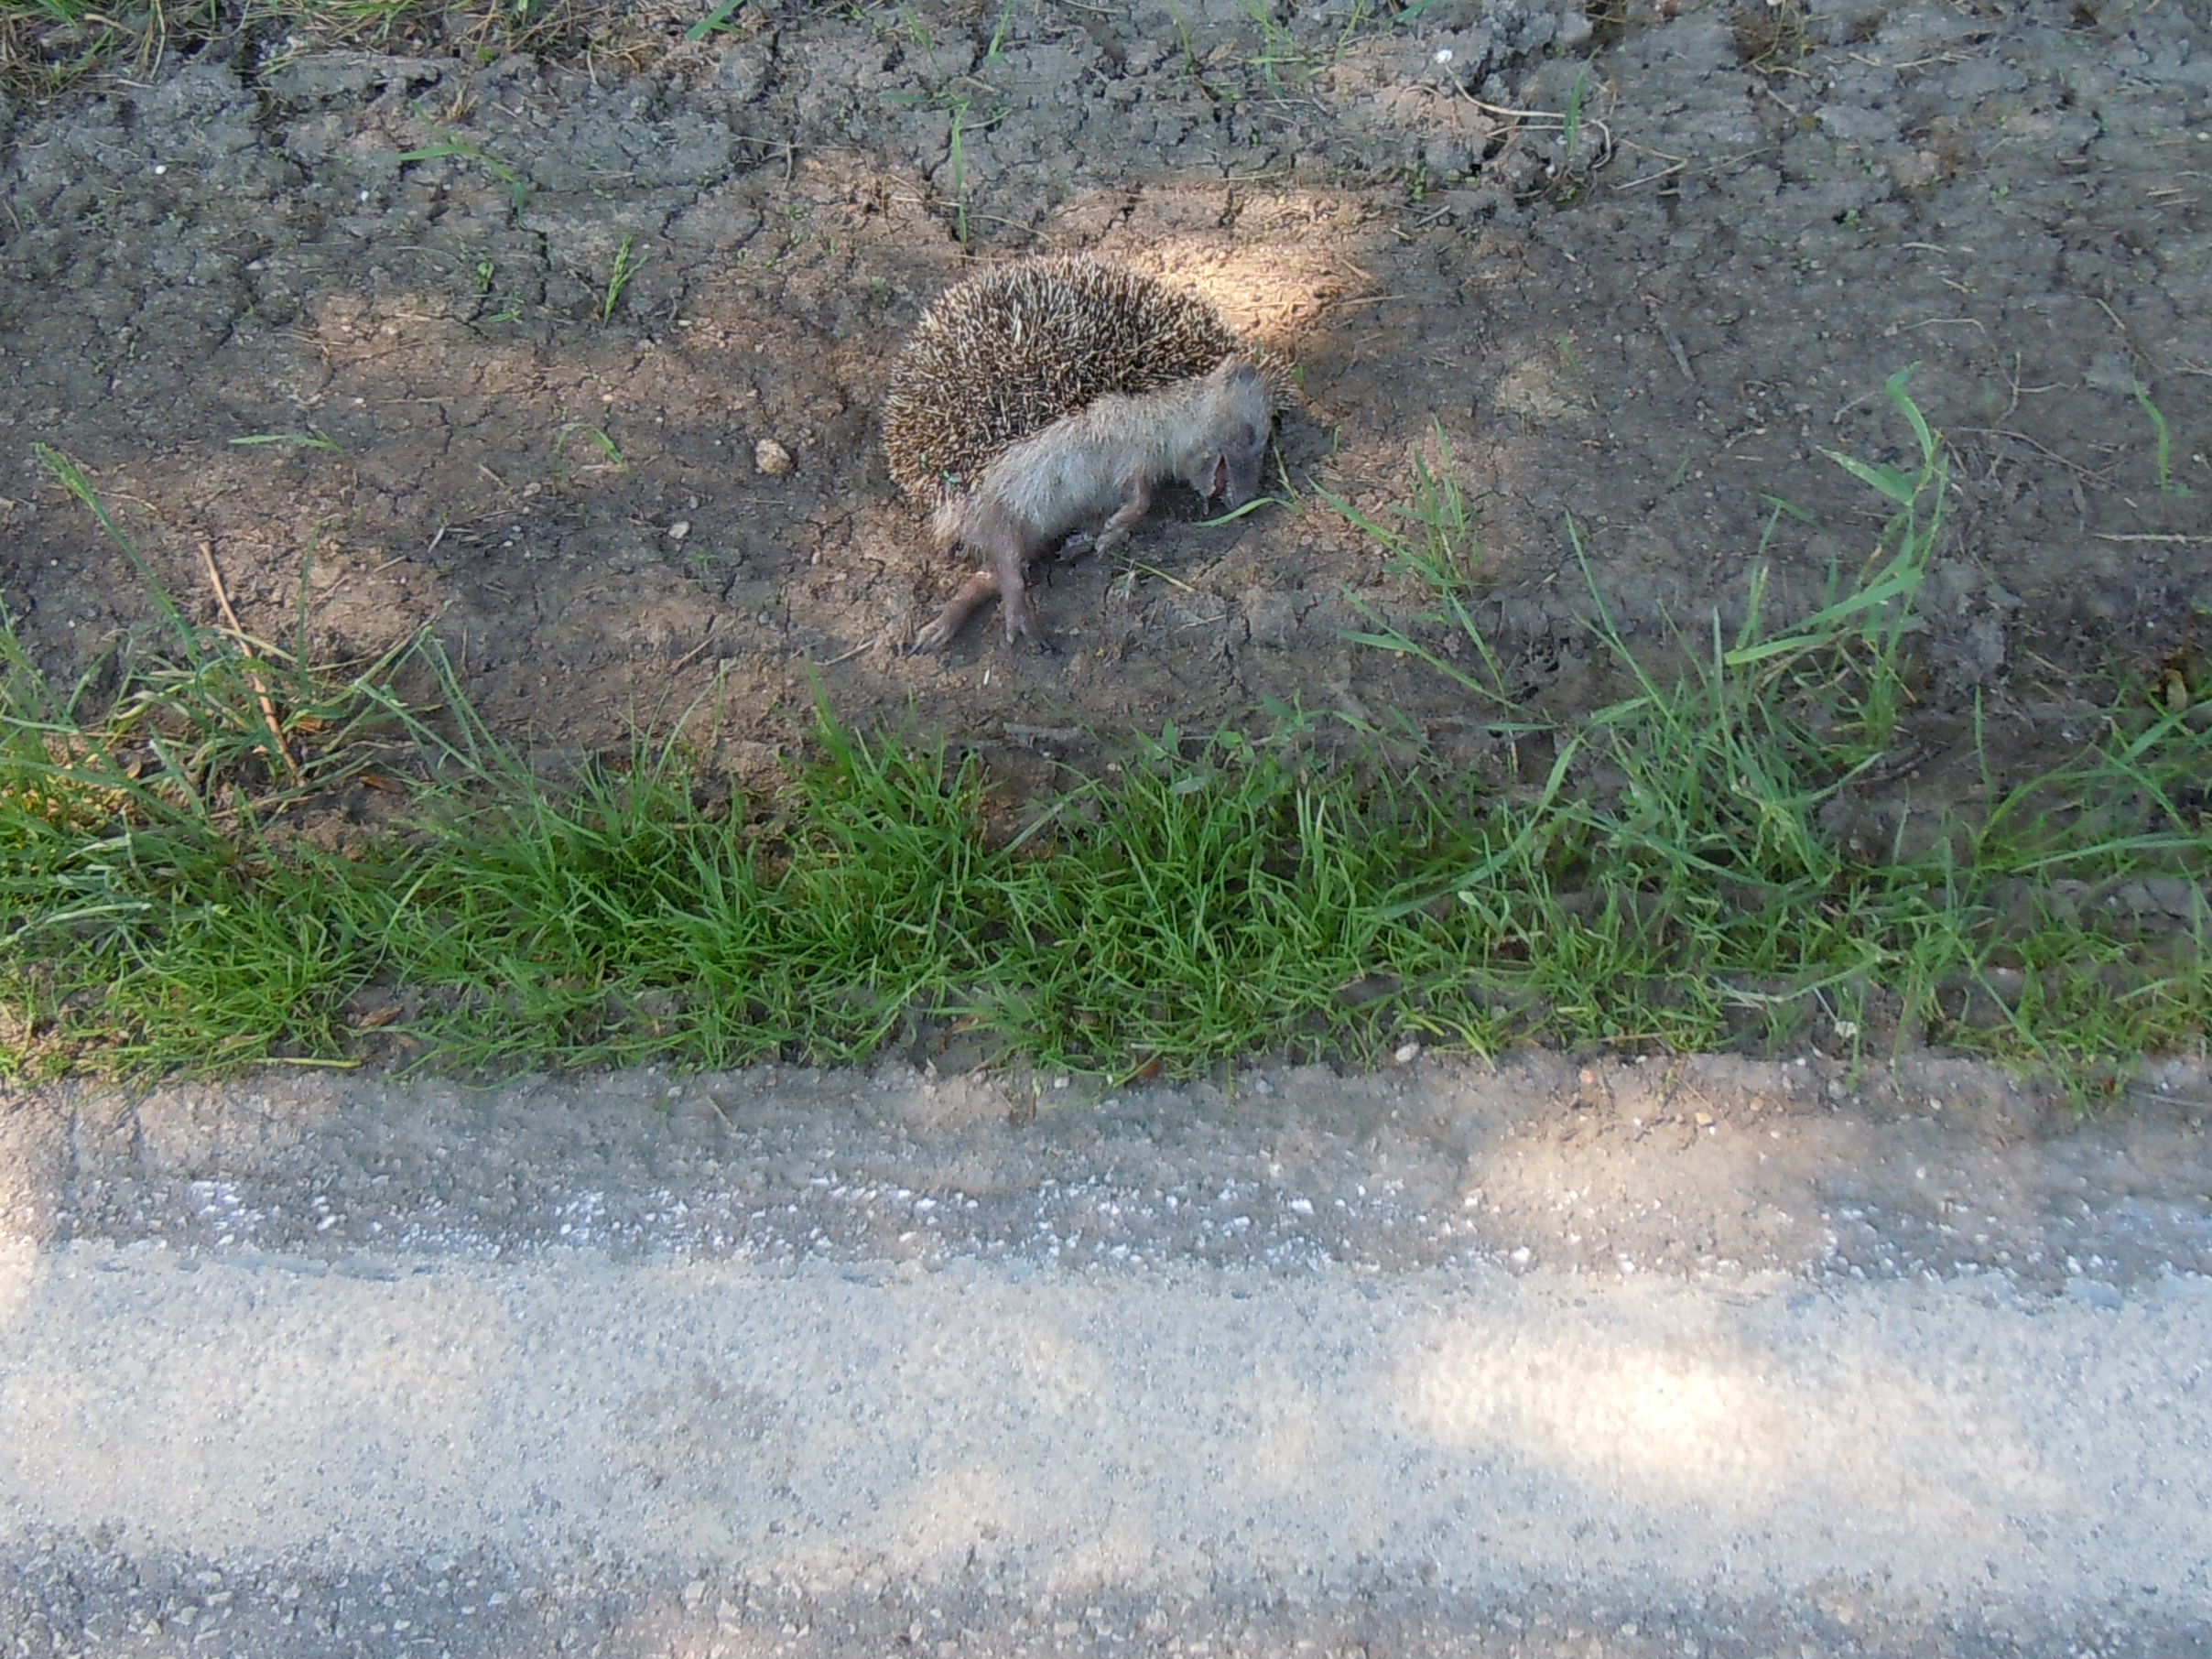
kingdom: Animalia
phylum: Chordata
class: Mammalia
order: Erinaceomorpha
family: Erinaceidae
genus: Erinaceus
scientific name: Erinaceus
